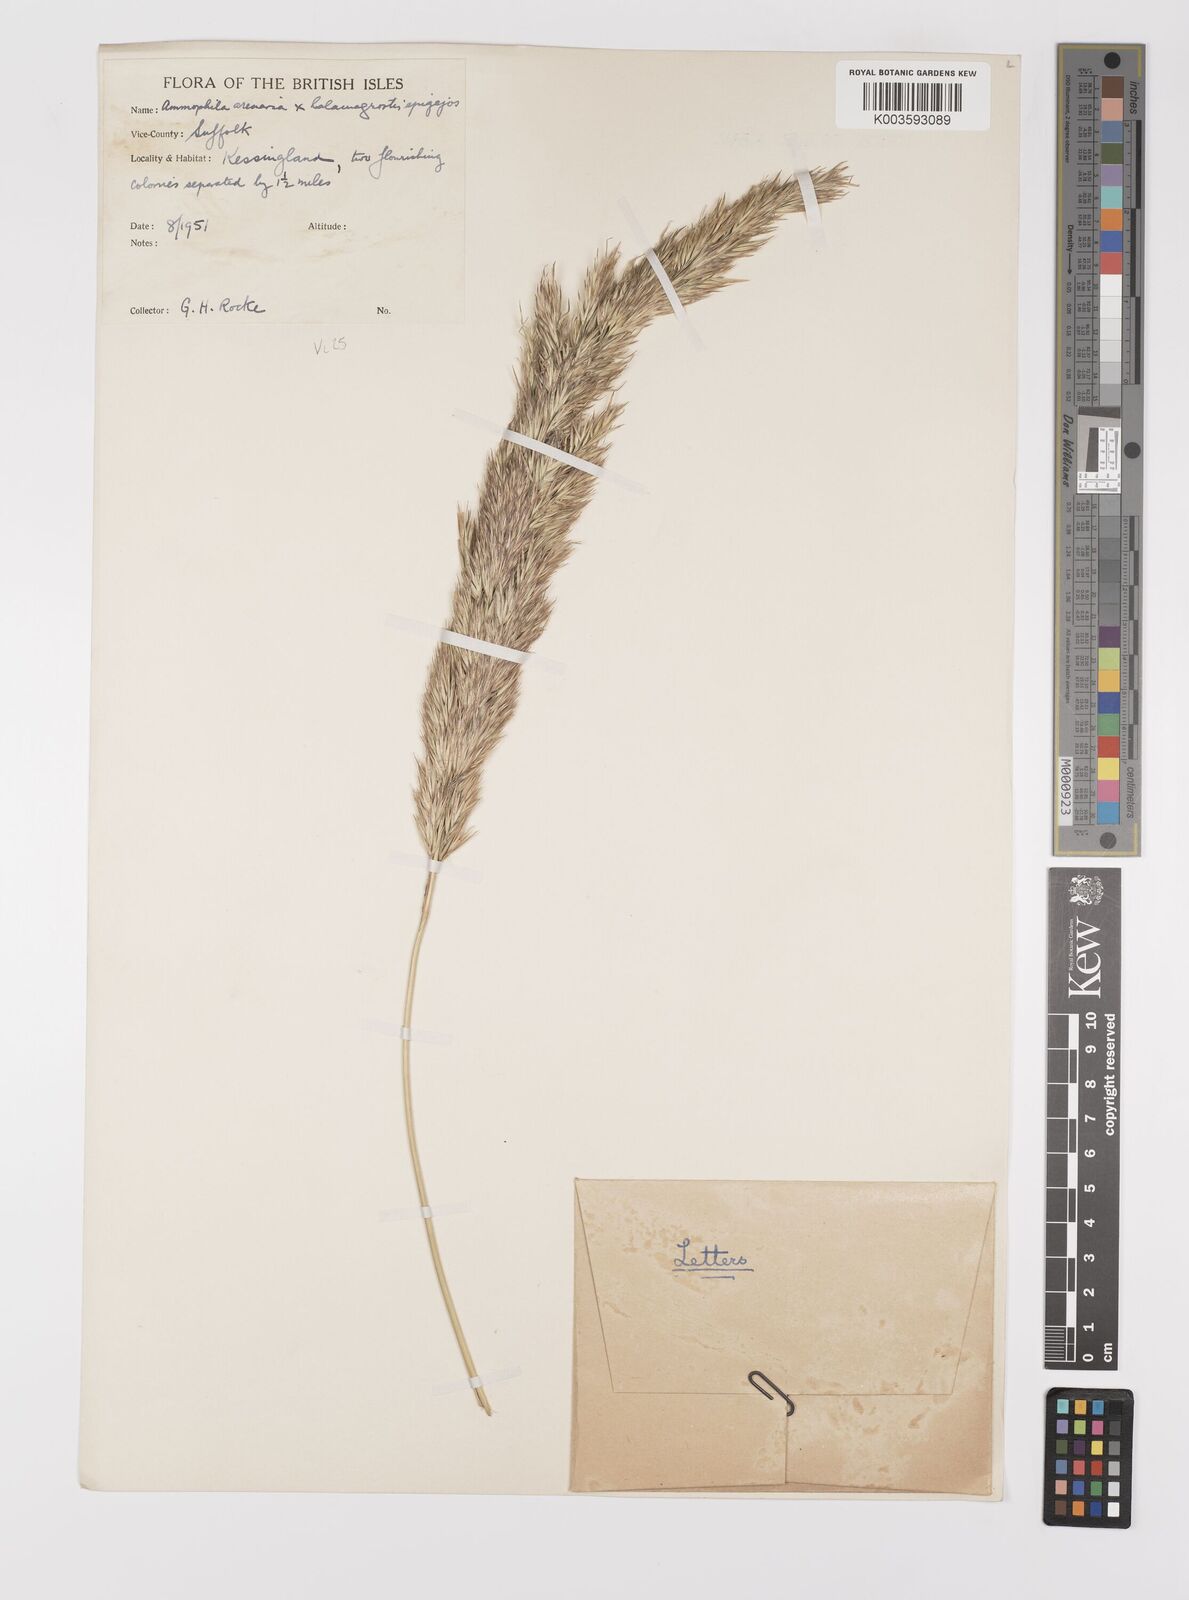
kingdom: Plantae
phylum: Tracheophyta
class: Liliopsida
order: Poales
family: Poaceae
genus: Calamagrostis
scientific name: Calamagrostis baltica
